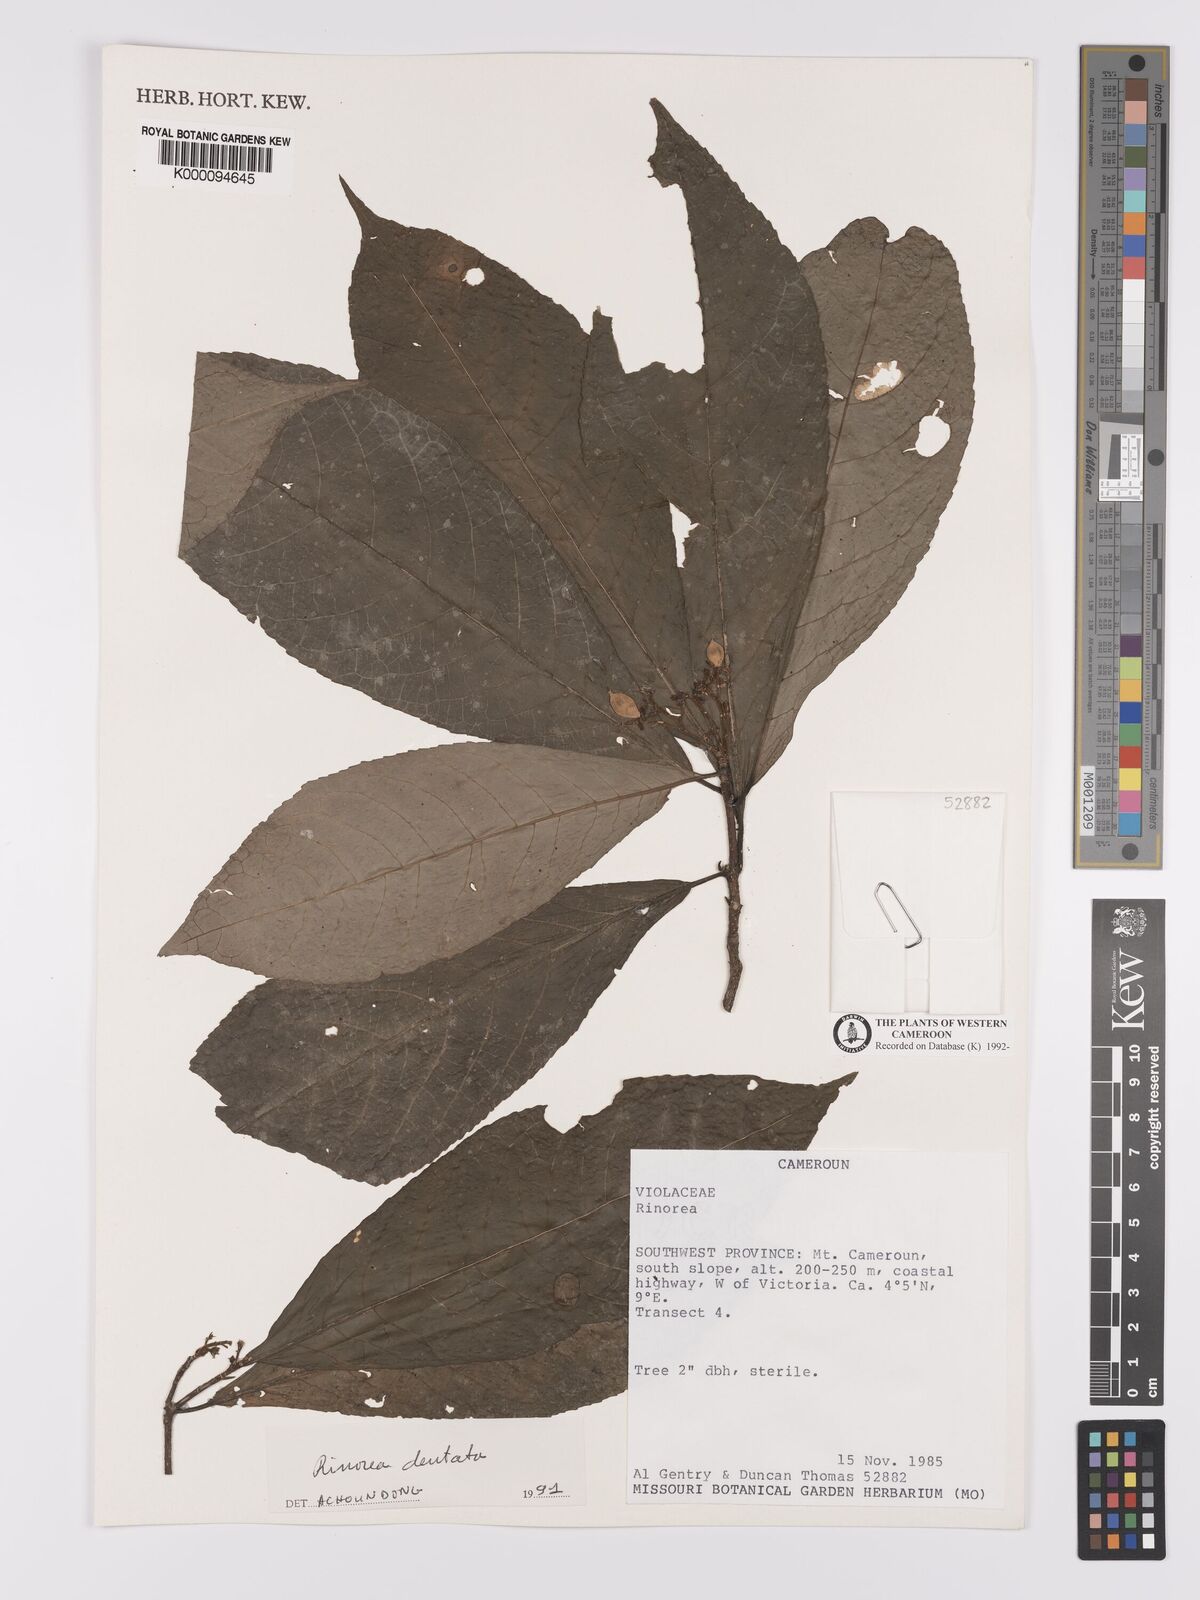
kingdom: Plantae
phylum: Tracheophyta
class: Magnoliopsida
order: Malpighiales
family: Violaceae
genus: Rinorea
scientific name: Rinorea dentata
